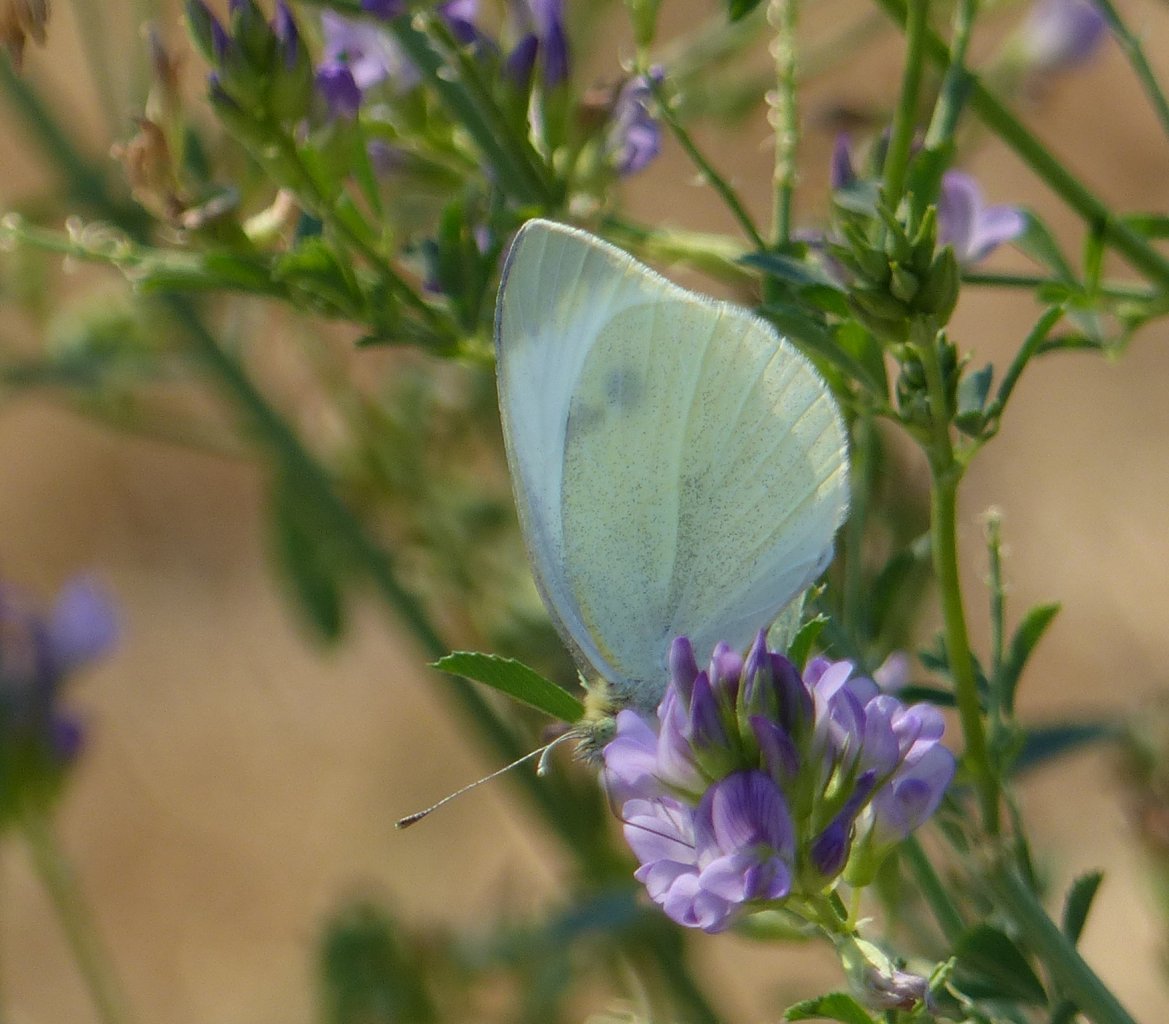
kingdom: Animalia
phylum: Arthropoda
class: Insecta
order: Lepidoptera
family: Pieridae
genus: Pieris
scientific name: Pieris rapae
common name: Cabbage White
